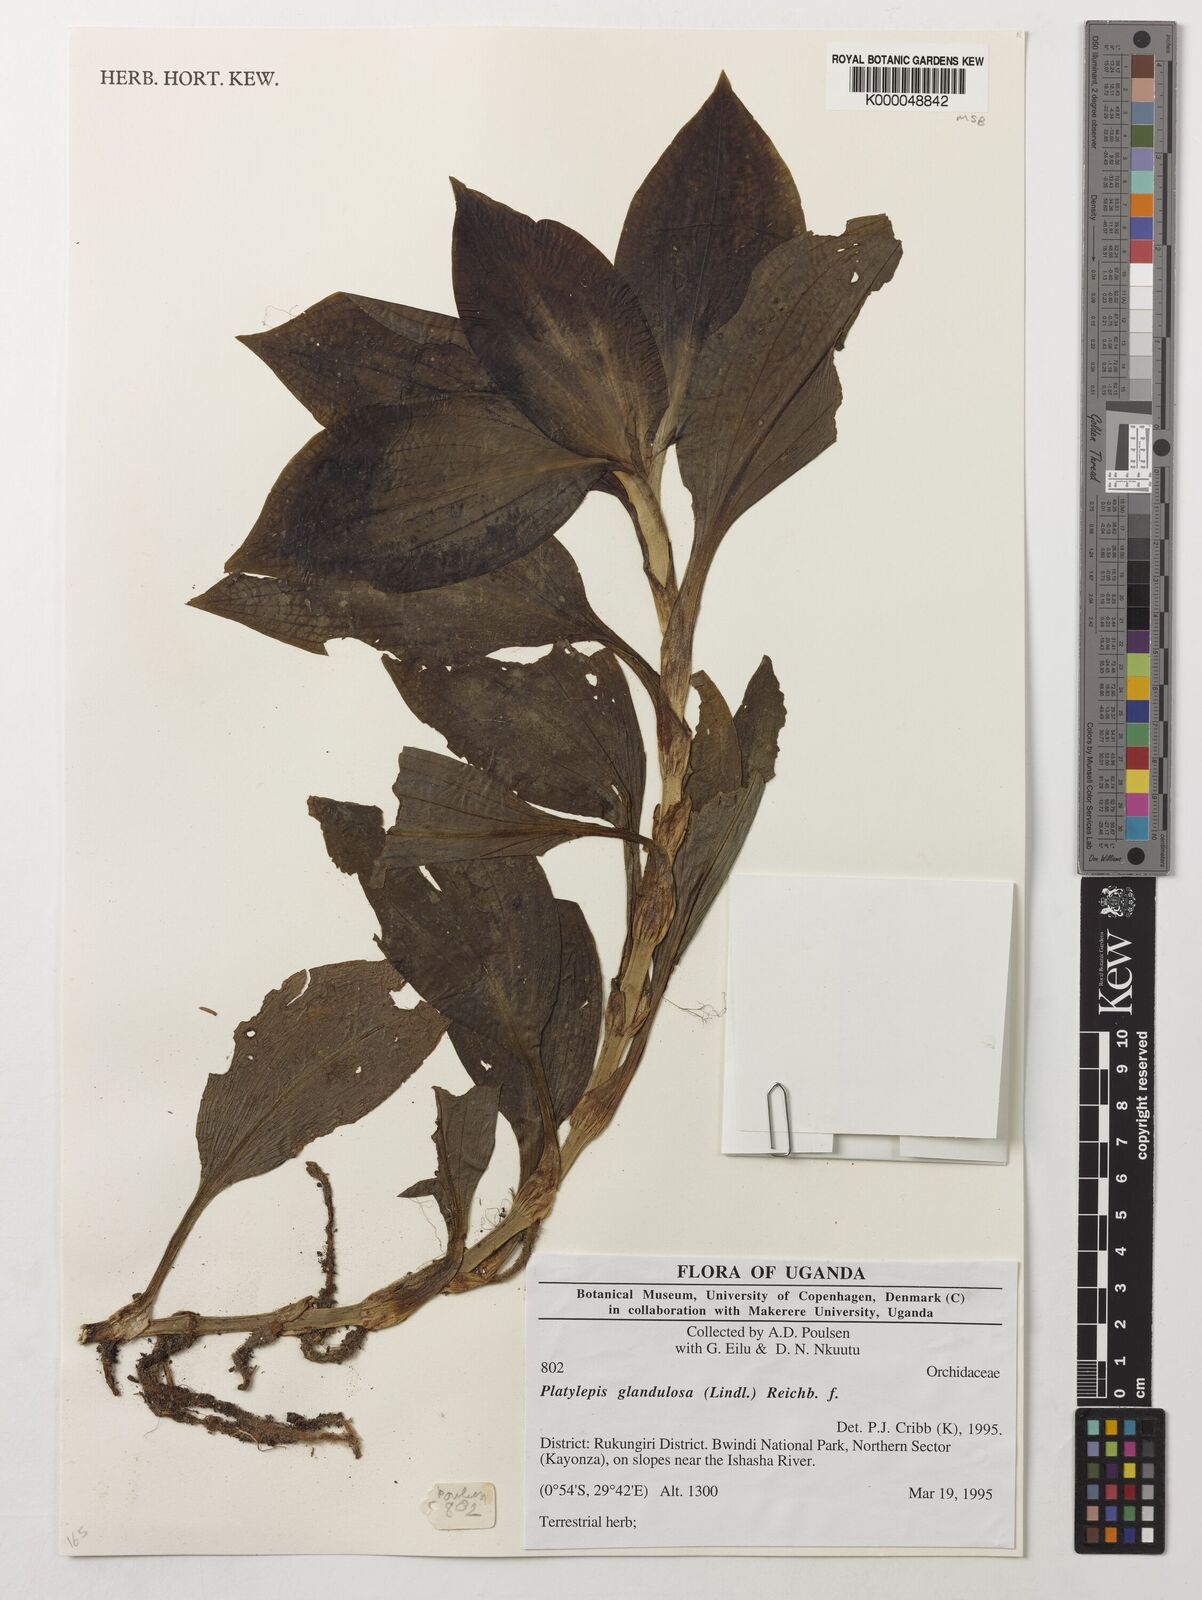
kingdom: Plantae
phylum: Tracheophyta
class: Liliopsida
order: Asparagales
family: Orchidaceae
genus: Platylepis
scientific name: Platylepis glandulosa
